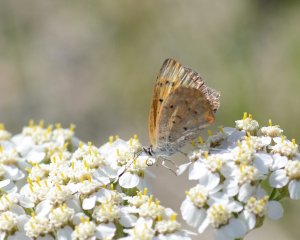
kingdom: Animalia
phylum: Arthropoda
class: Insecta
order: Lepidoptera
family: Lycaenidae
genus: Epidemia
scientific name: Epidemia dorcas
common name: Dorcas Copper
